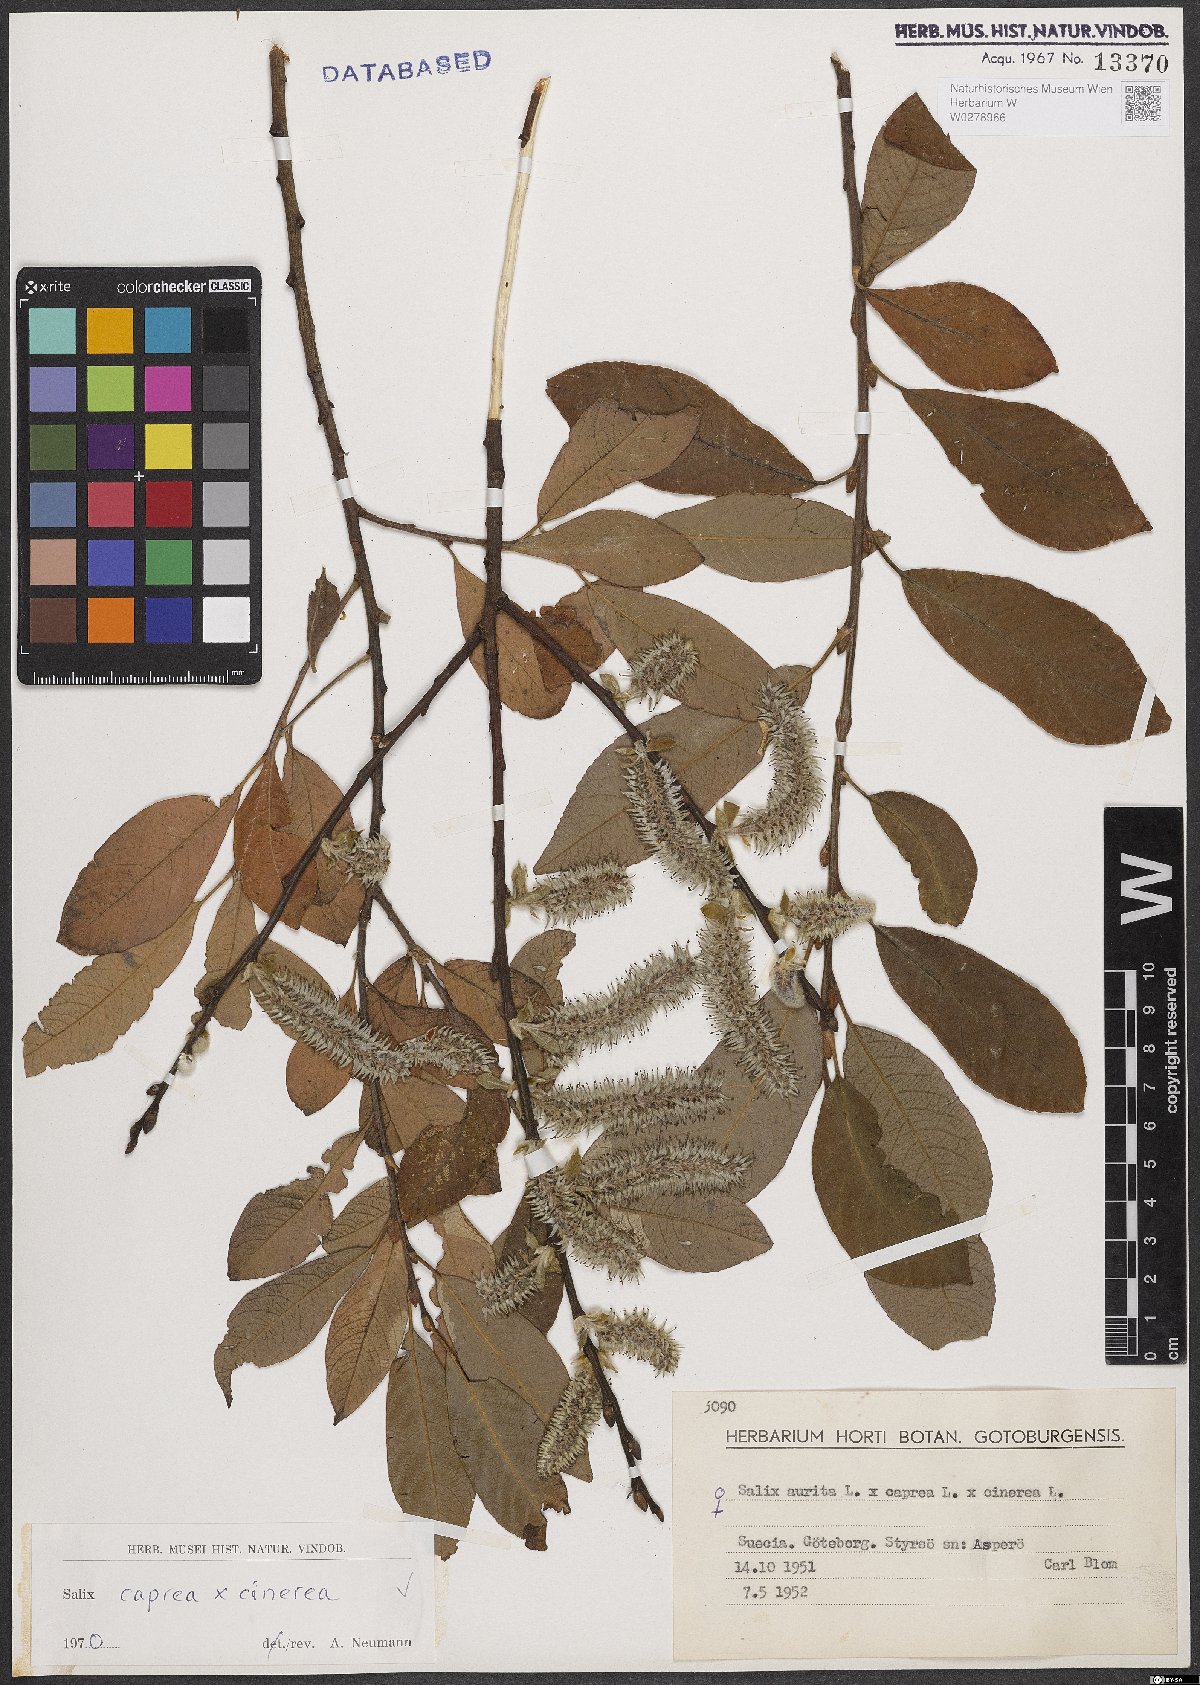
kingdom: Plantae
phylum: Tracheophyta
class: Magnoliopsida
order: Malpighiales
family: Salicaceae
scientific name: Salicaceae
